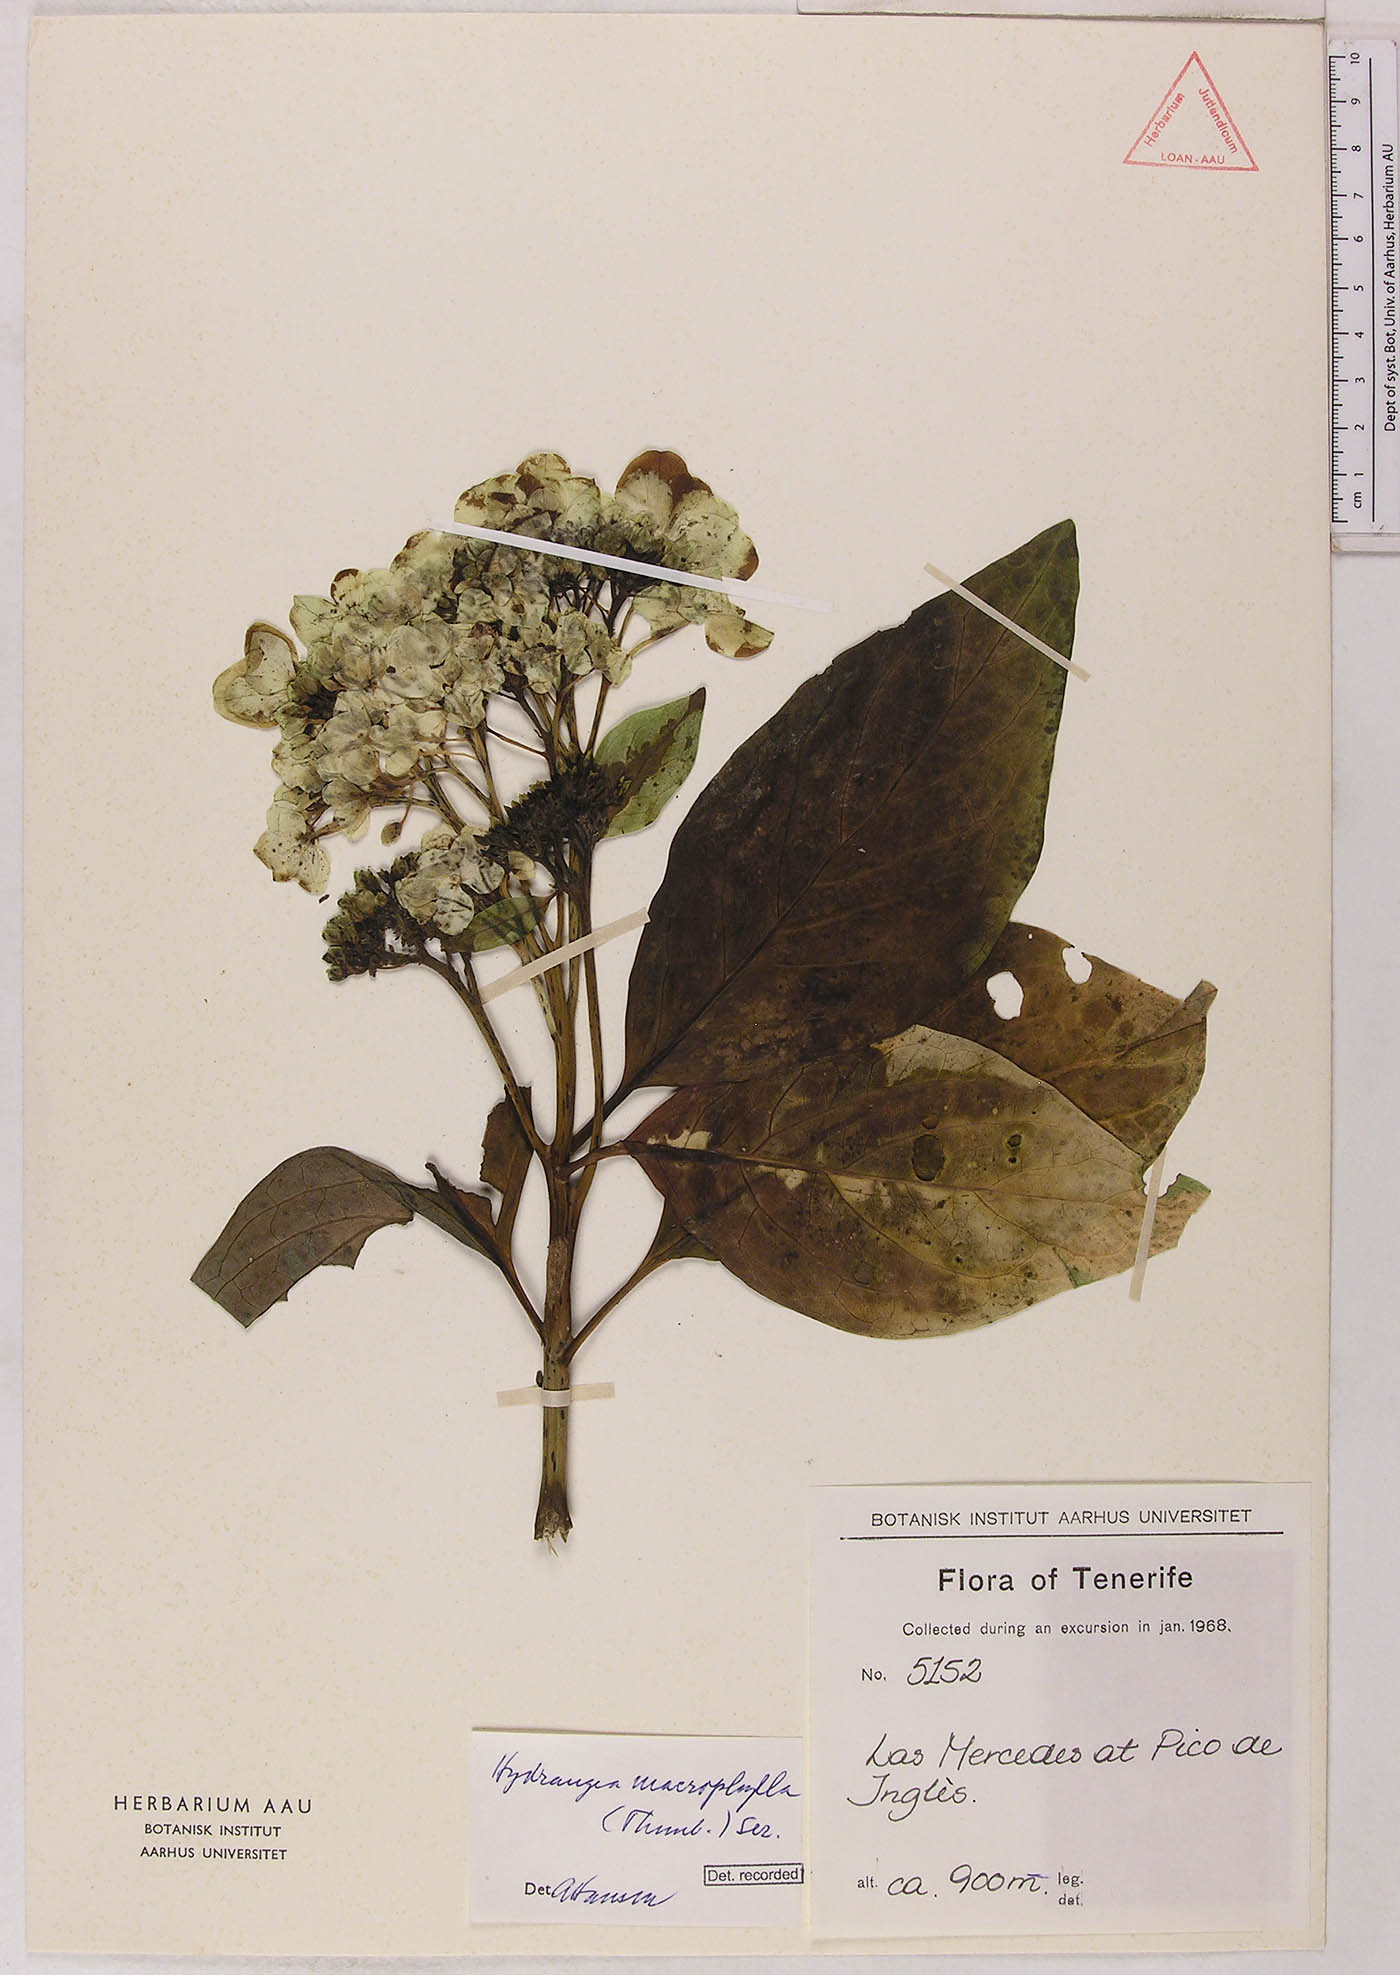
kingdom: Plantae
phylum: Tracheophyta
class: Magnoliopsida
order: Cornales
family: Hydrangeaceae
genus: Hydrangea
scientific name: Hydrangea macrophylla
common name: Hydrangea
